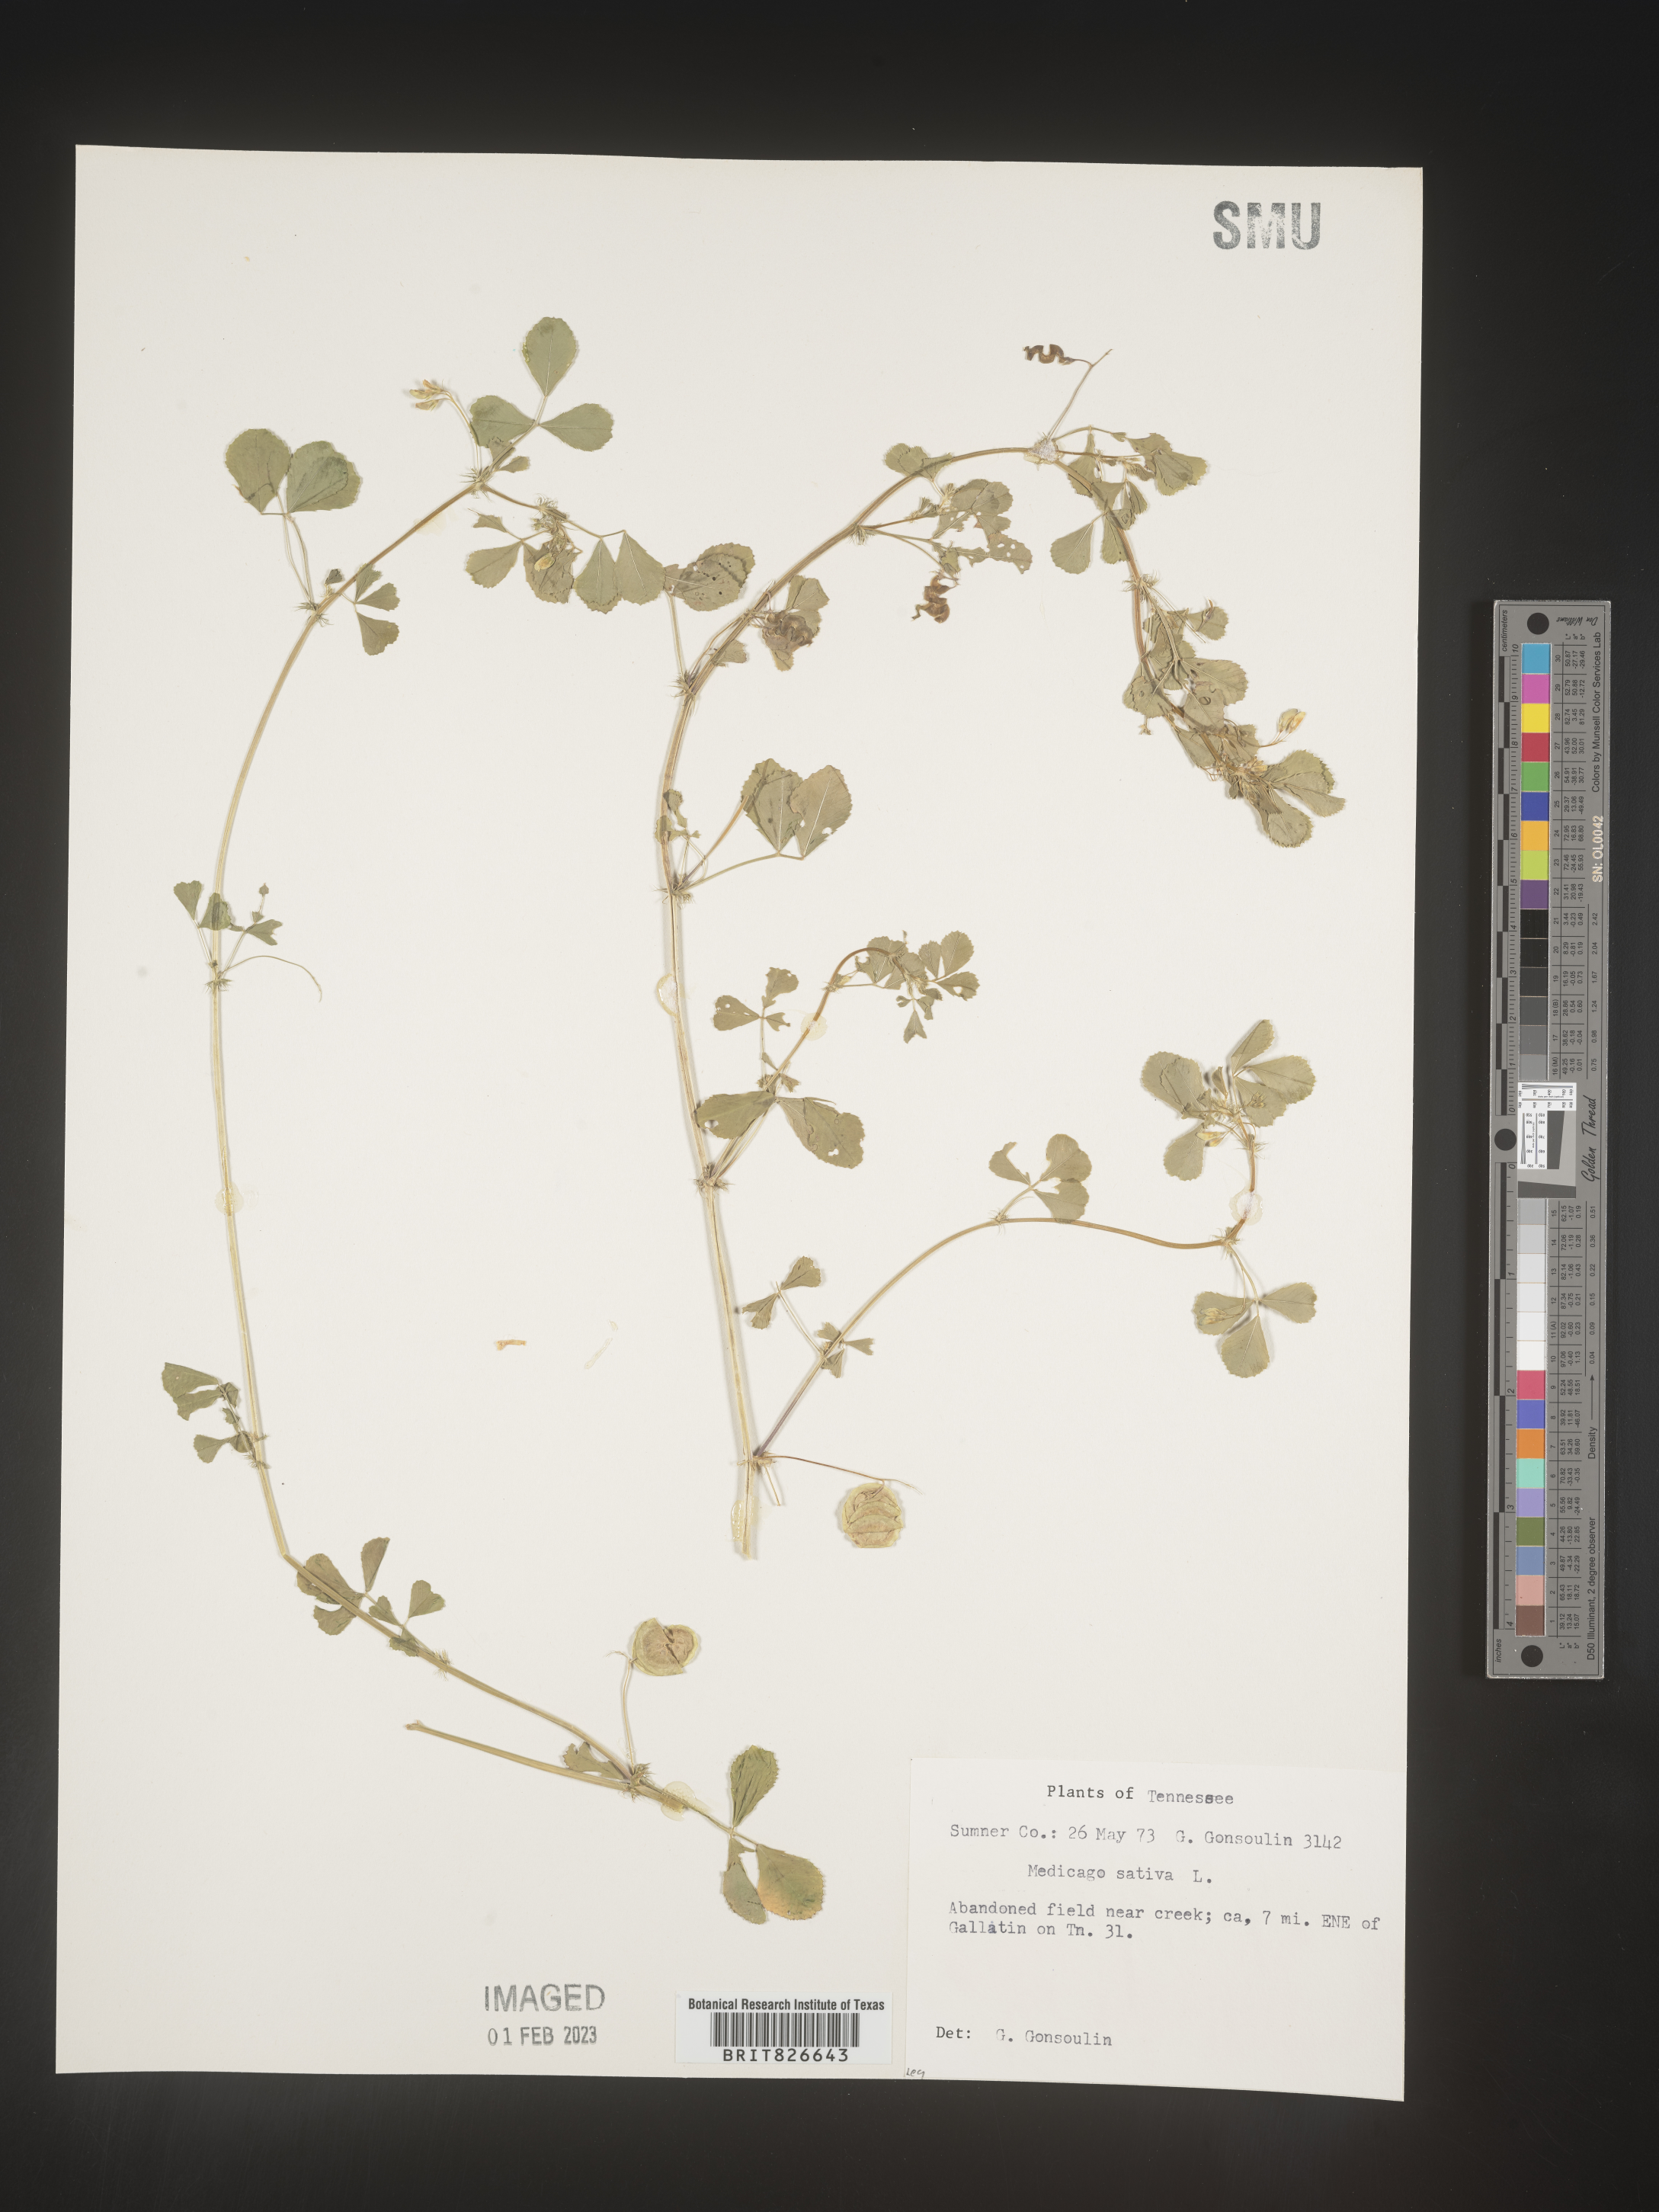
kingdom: Plantae
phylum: Tracheophyta
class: Magnoliopsida
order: Fabales
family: Fabaceae
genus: Medicago
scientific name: Medicago sativa
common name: Alfalfa
